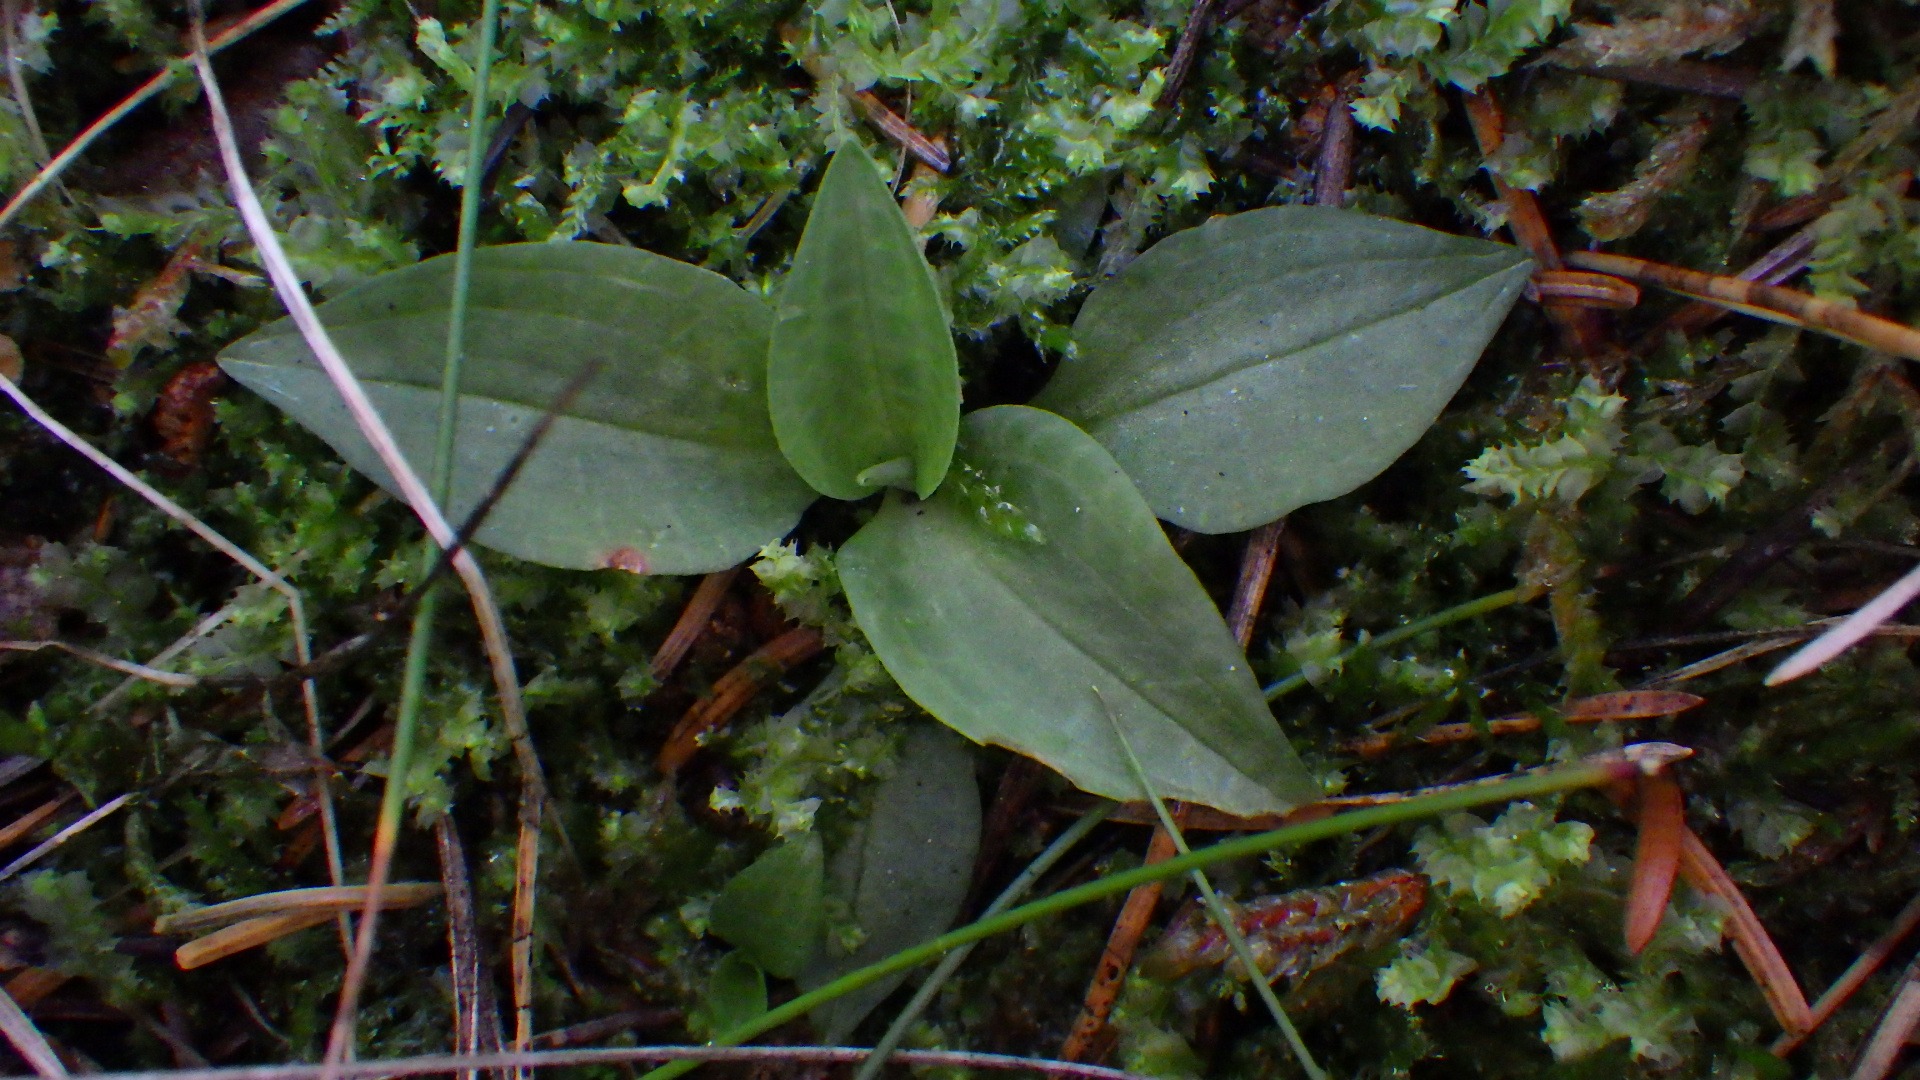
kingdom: Plantae
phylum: Tracheophyta
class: Liliopsida
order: Asparagales
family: Orchidaceae
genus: Goodyera
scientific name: Goodyera repens
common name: Knærod
